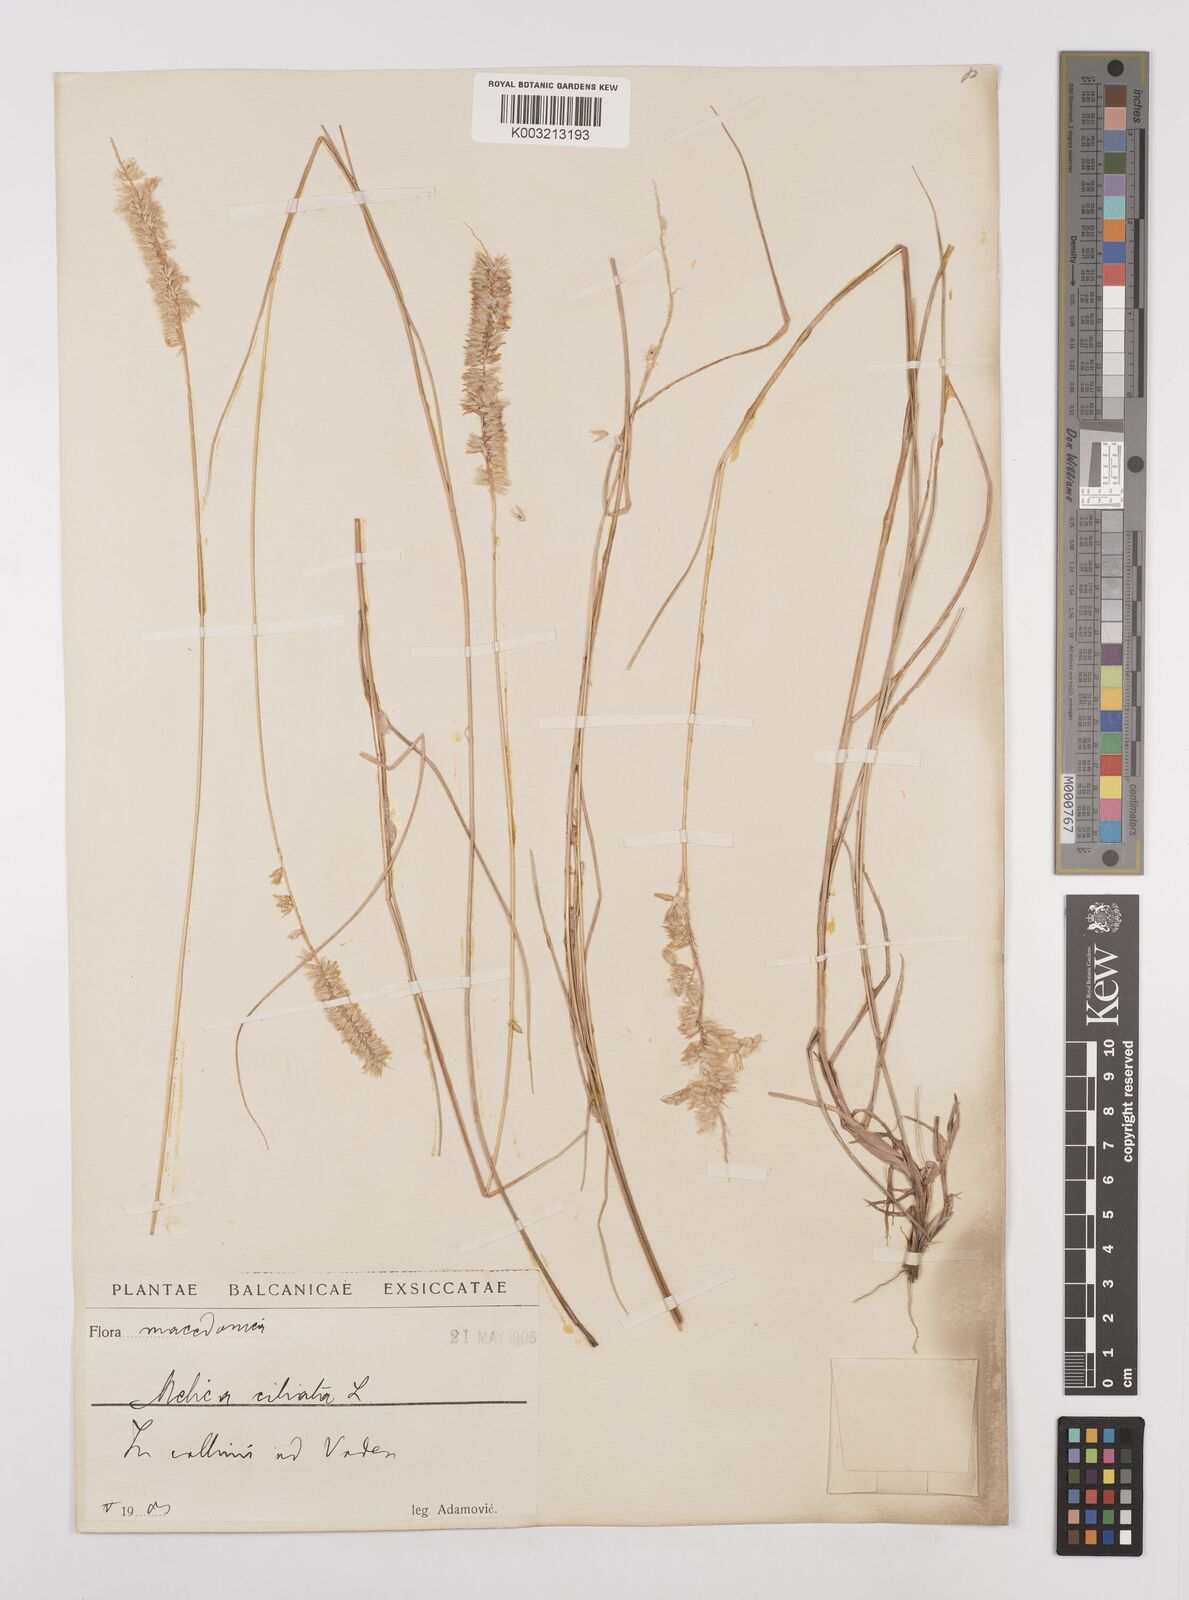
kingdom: Plantae
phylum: Tracheophyta
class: Liliopsida
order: Poales
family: Poaceae
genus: Melica
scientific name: Melica ciliata
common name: Hairy melicgrass
